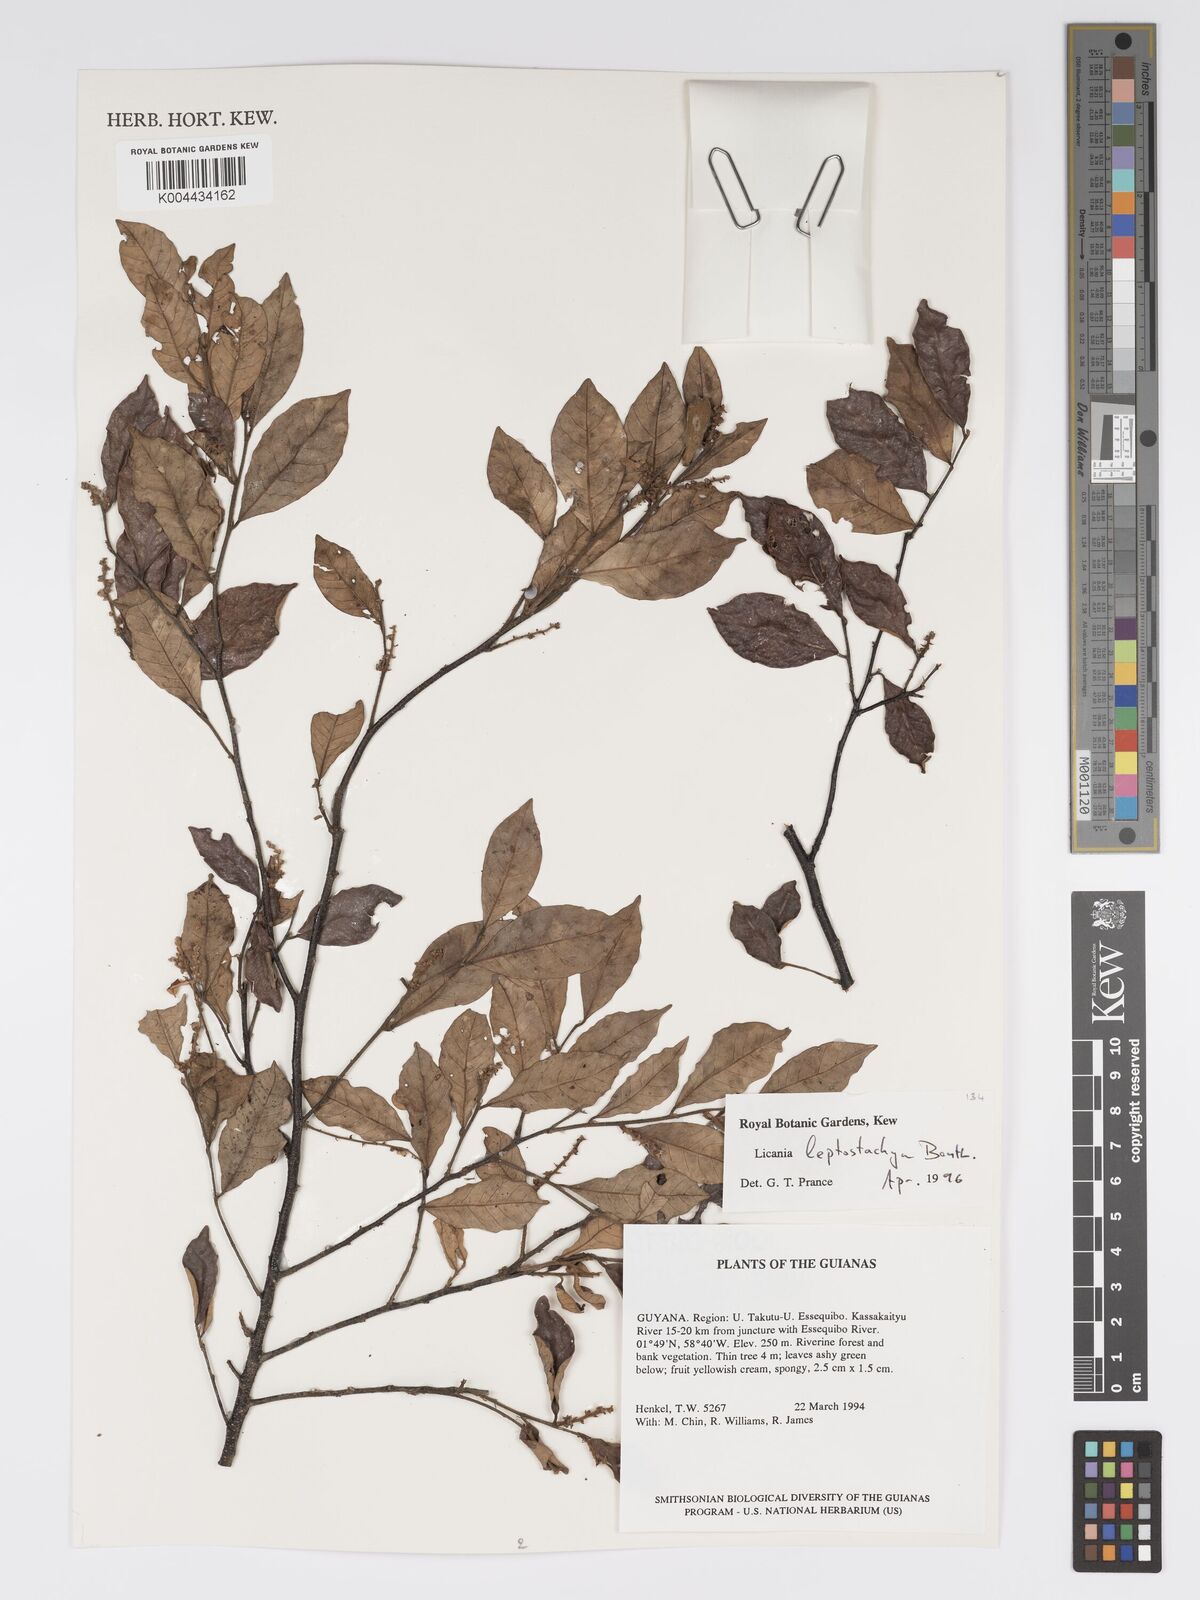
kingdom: Plantae
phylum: Tracheophyta
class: Magnoliopsida
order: Malpighiales
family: Chrysobalanaceae
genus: Licania
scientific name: Licania leptostachya
